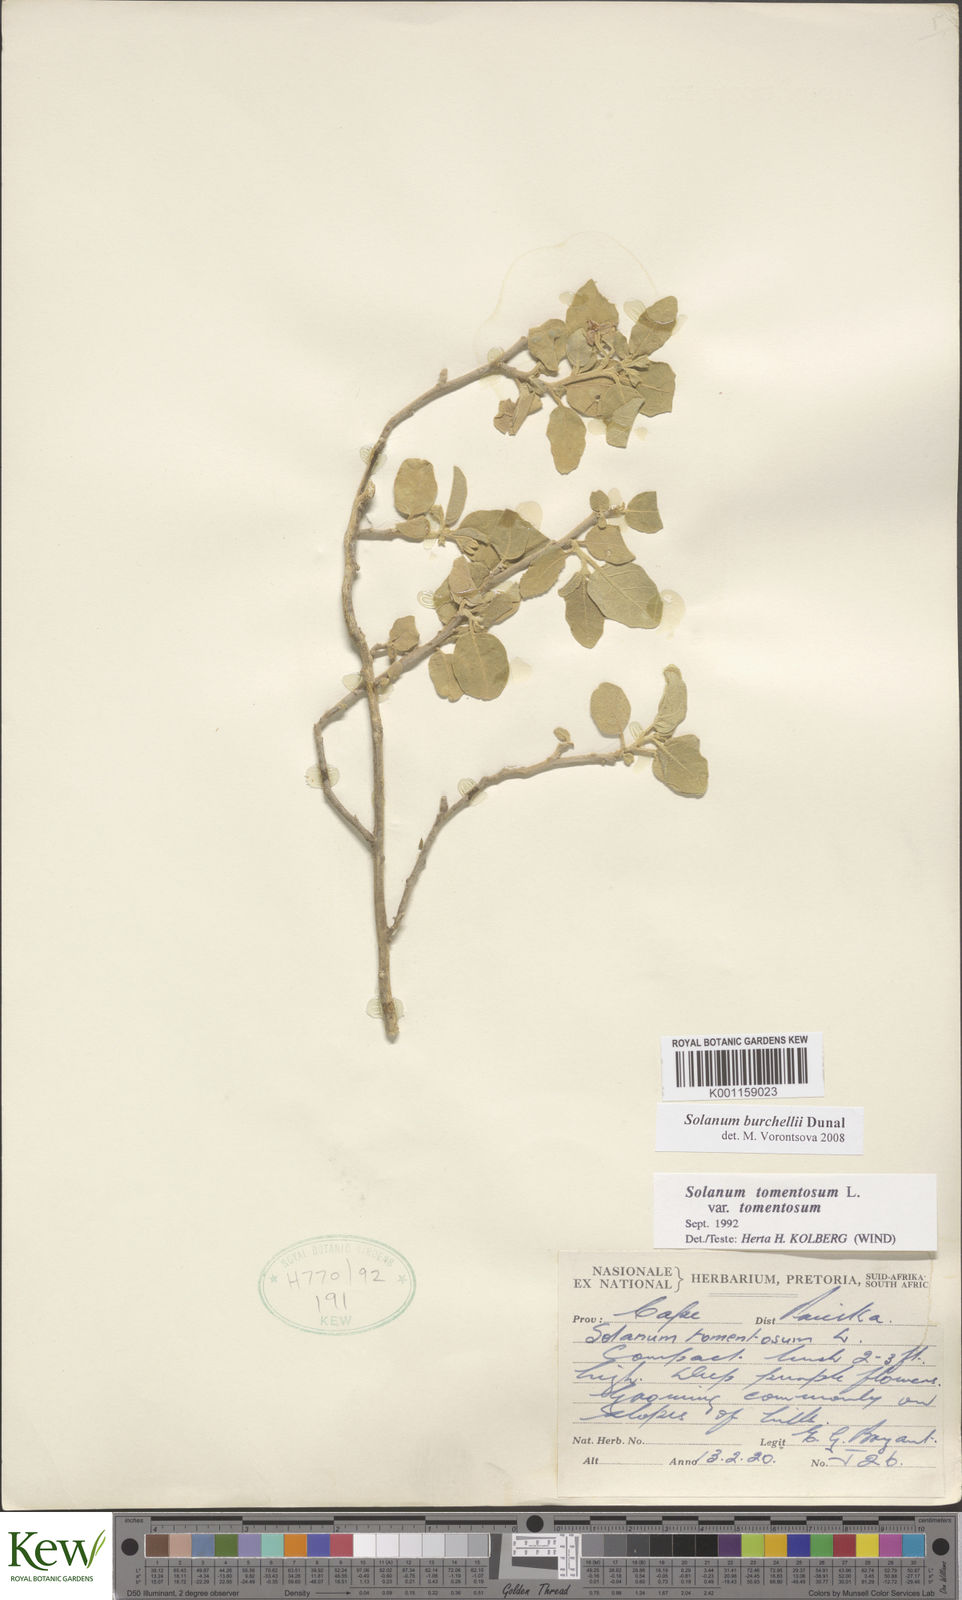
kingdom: Plantae
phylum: Tracheophyta
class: Magnoliopsida
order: Solanales
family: Solanaceae
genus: Solanum
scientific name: Solanum burchellii
